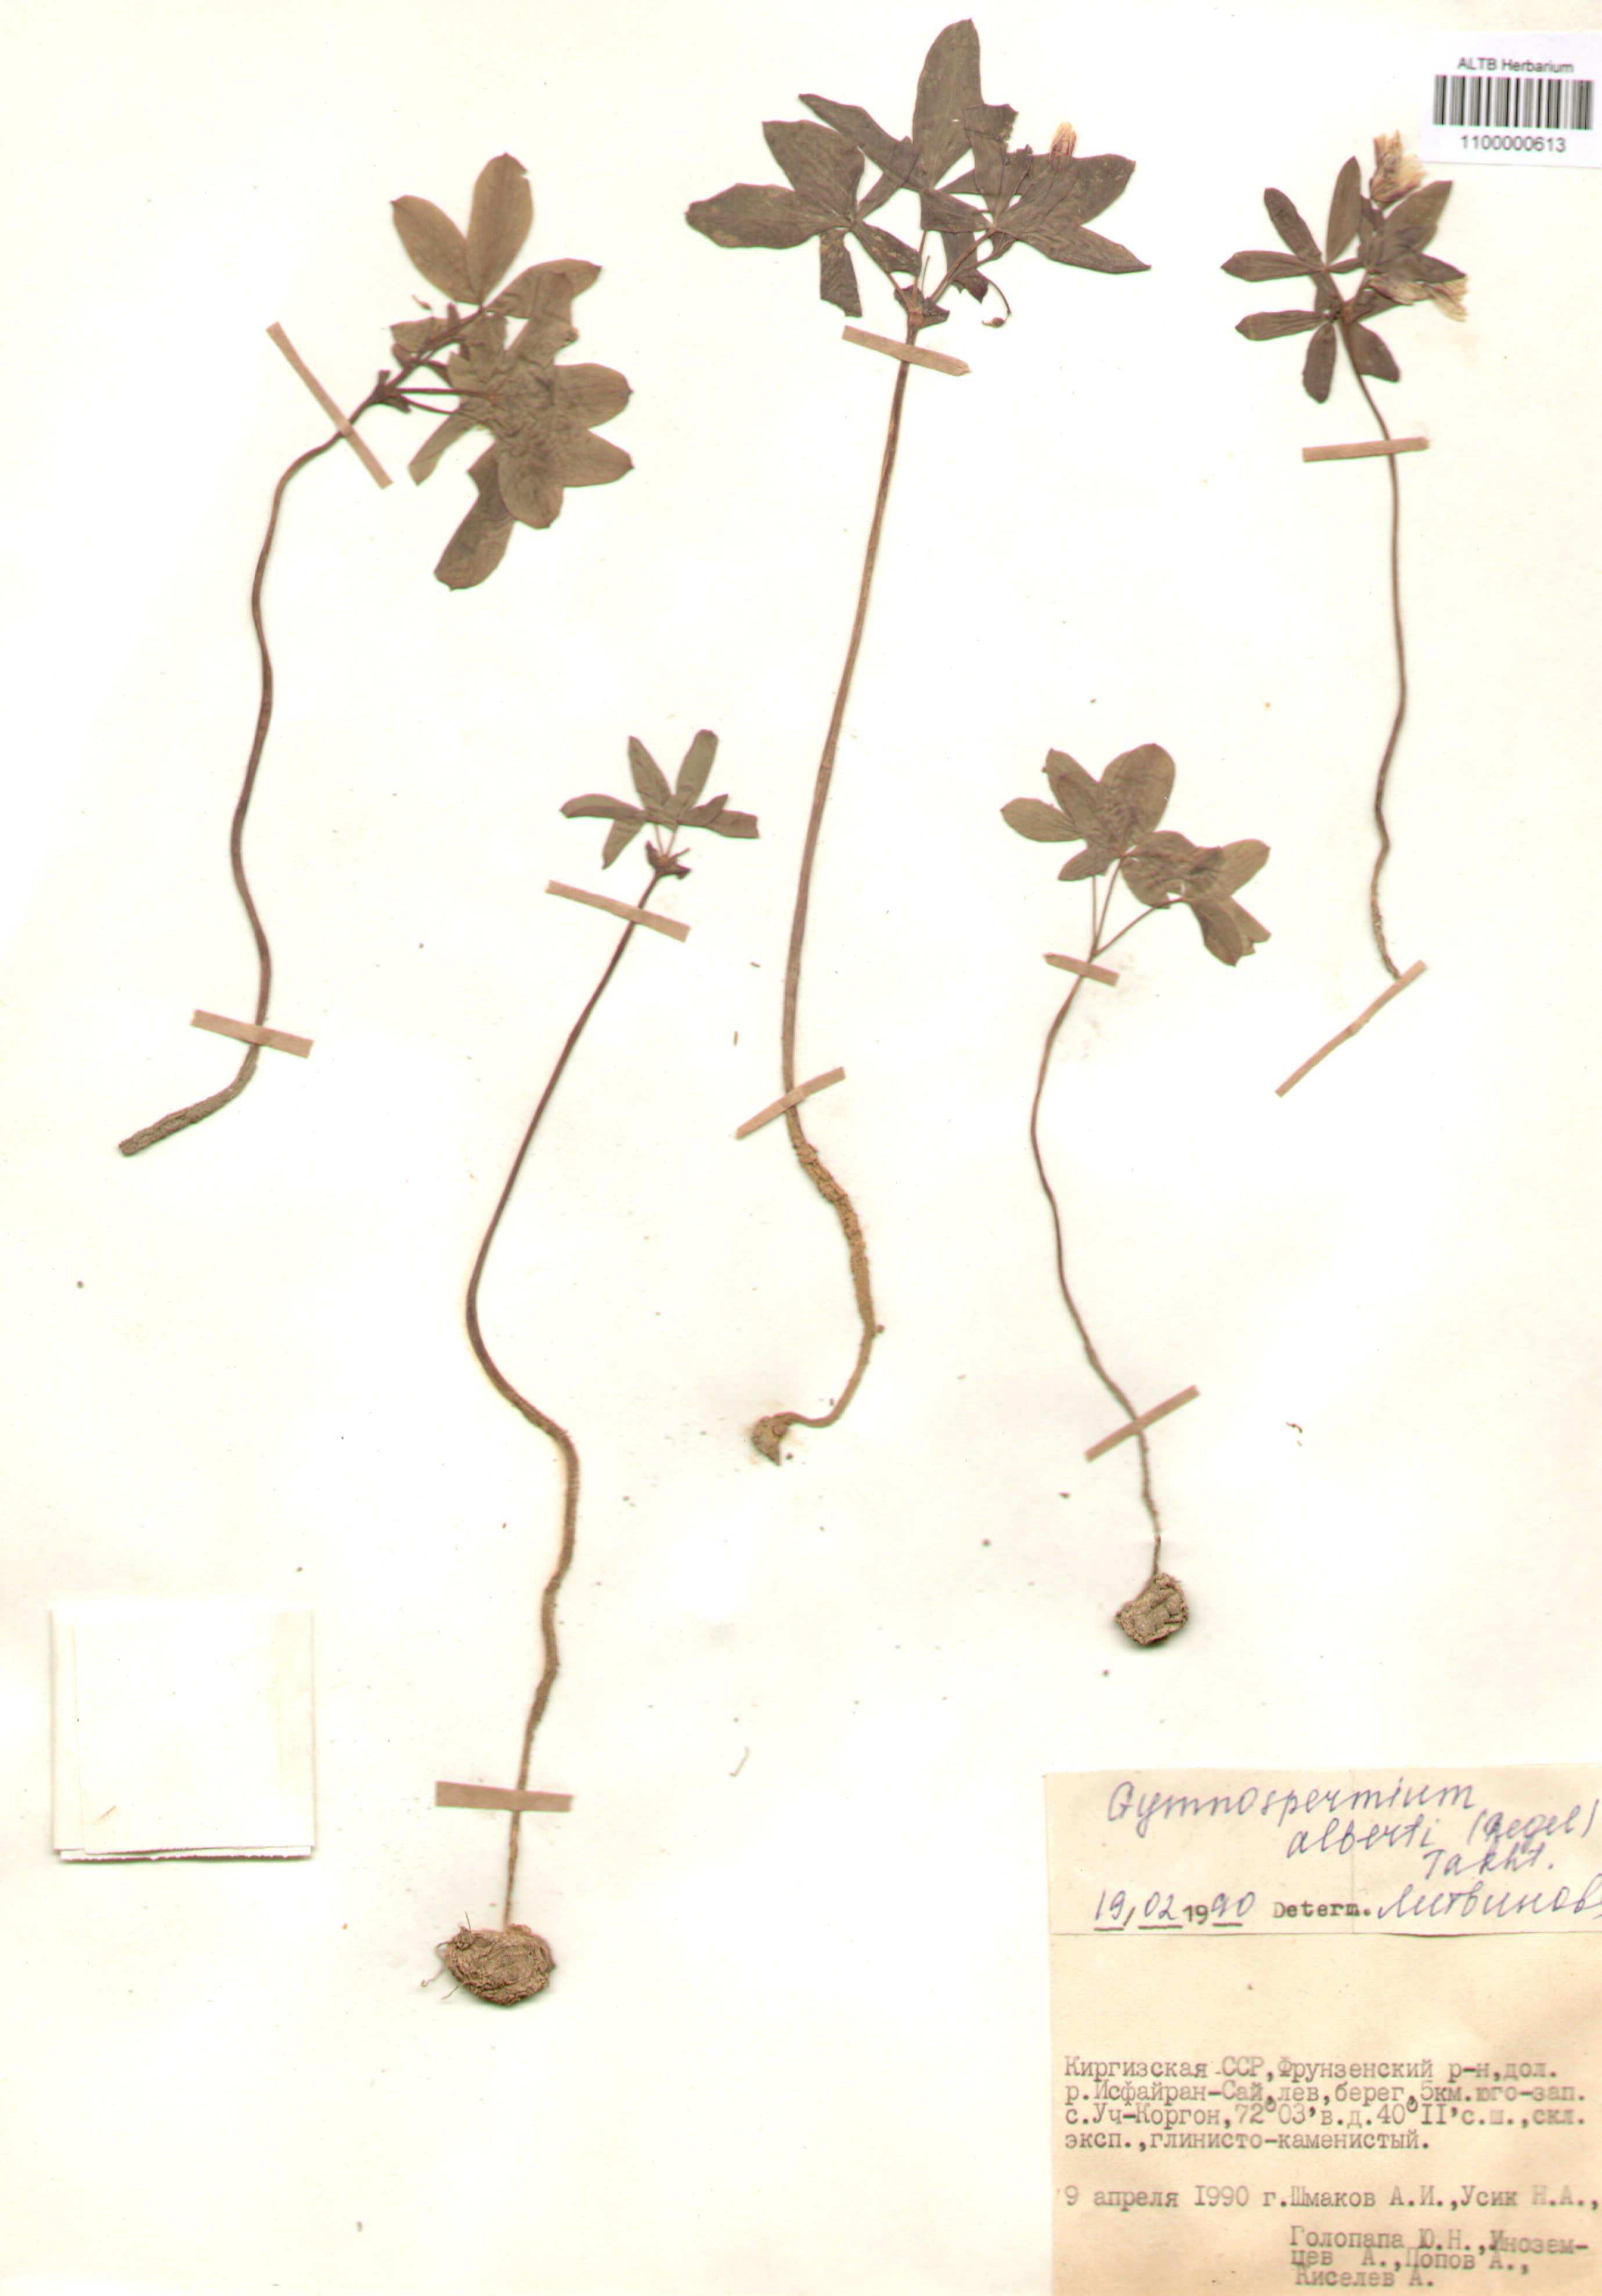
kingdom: Plantae
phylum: Tracheophyta
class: Magnoliopsida
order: Ranunculales
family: Berberidaceae
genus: Gymnospermium
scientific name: Gymnospermium alberti
